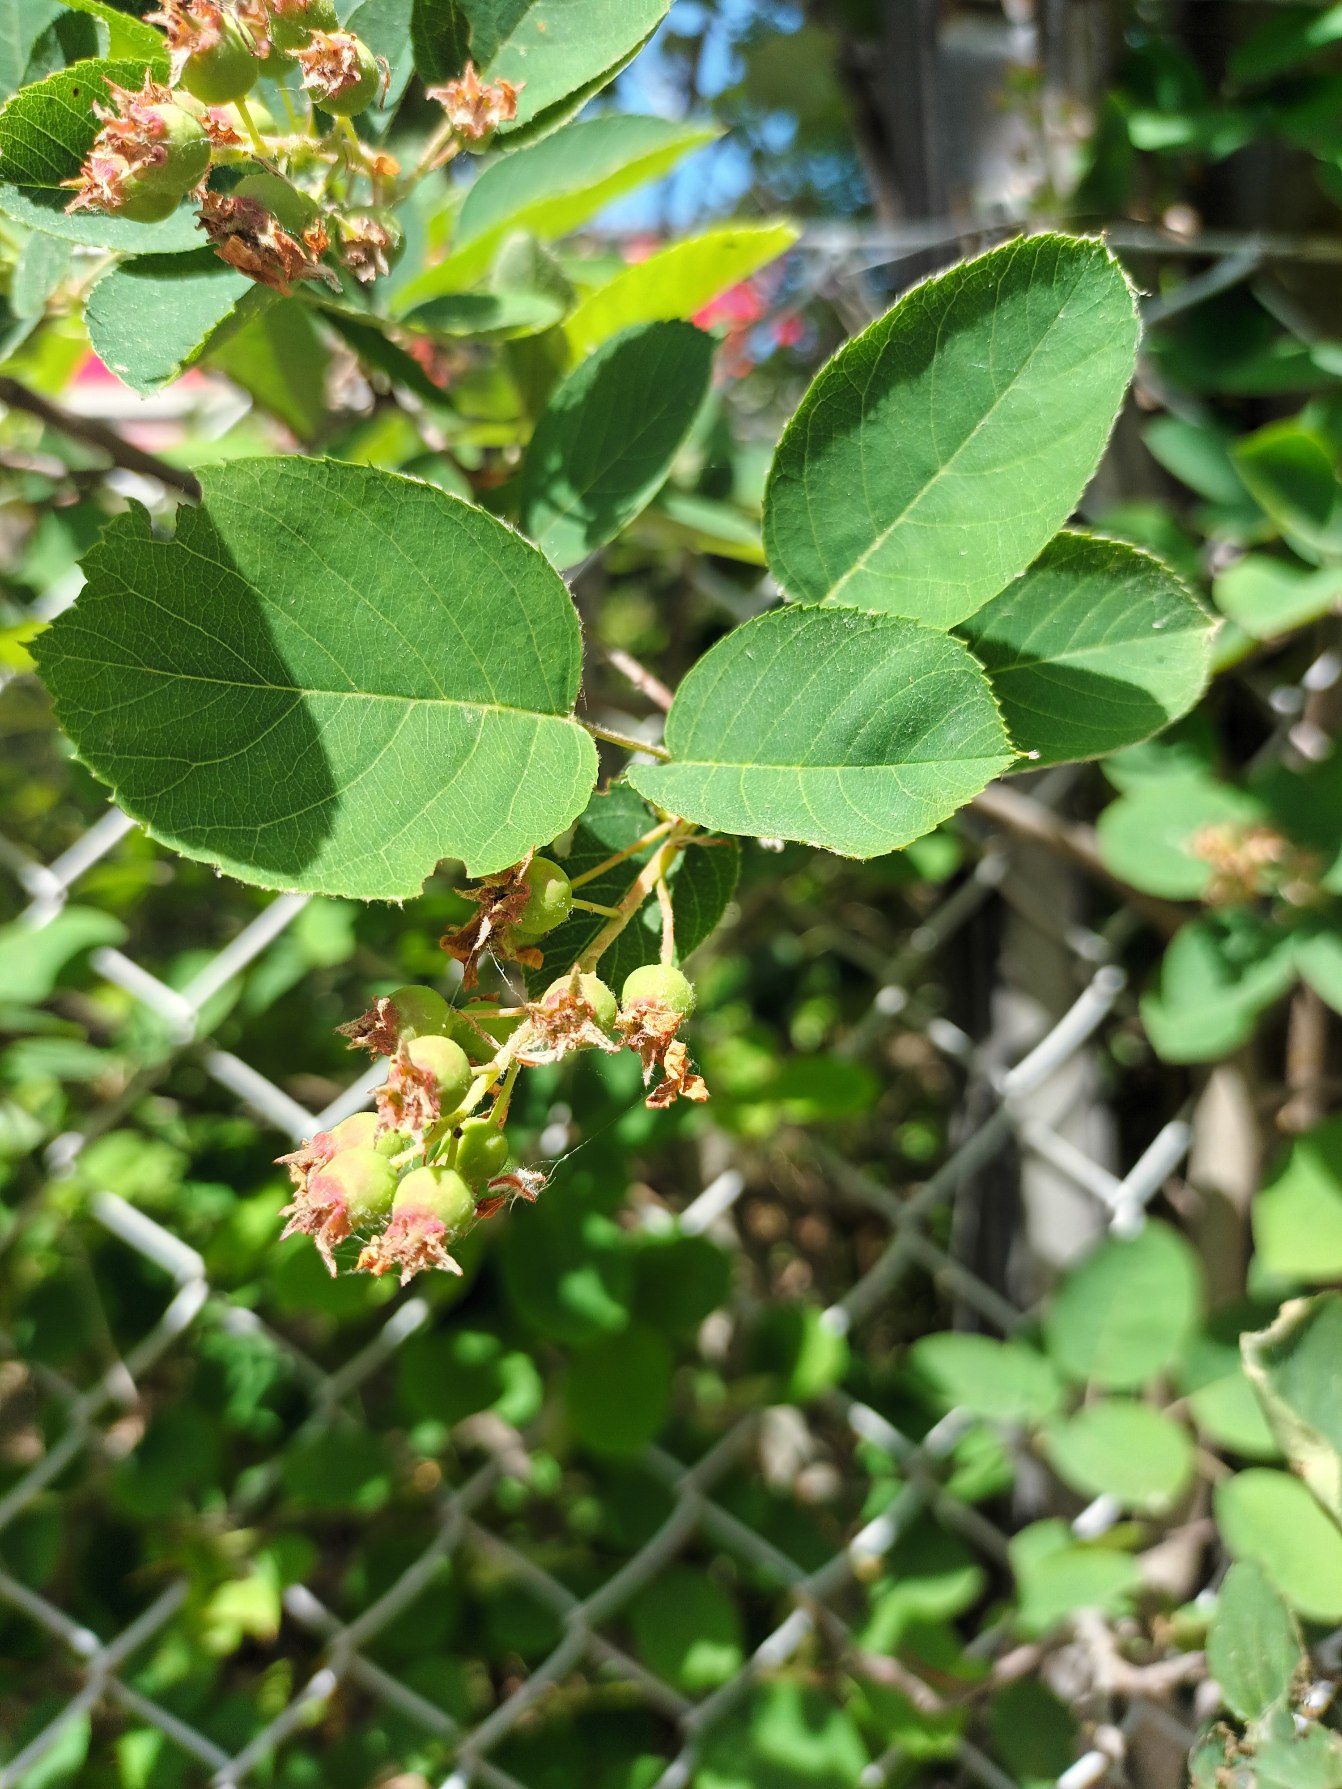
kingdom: Plantae
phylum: Tracheophyta
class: Magnoliopsida
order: Rosales
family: Rosaceae
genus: Amelanchier
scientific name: Amelanchier humilis
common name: Aks-bærmispel
